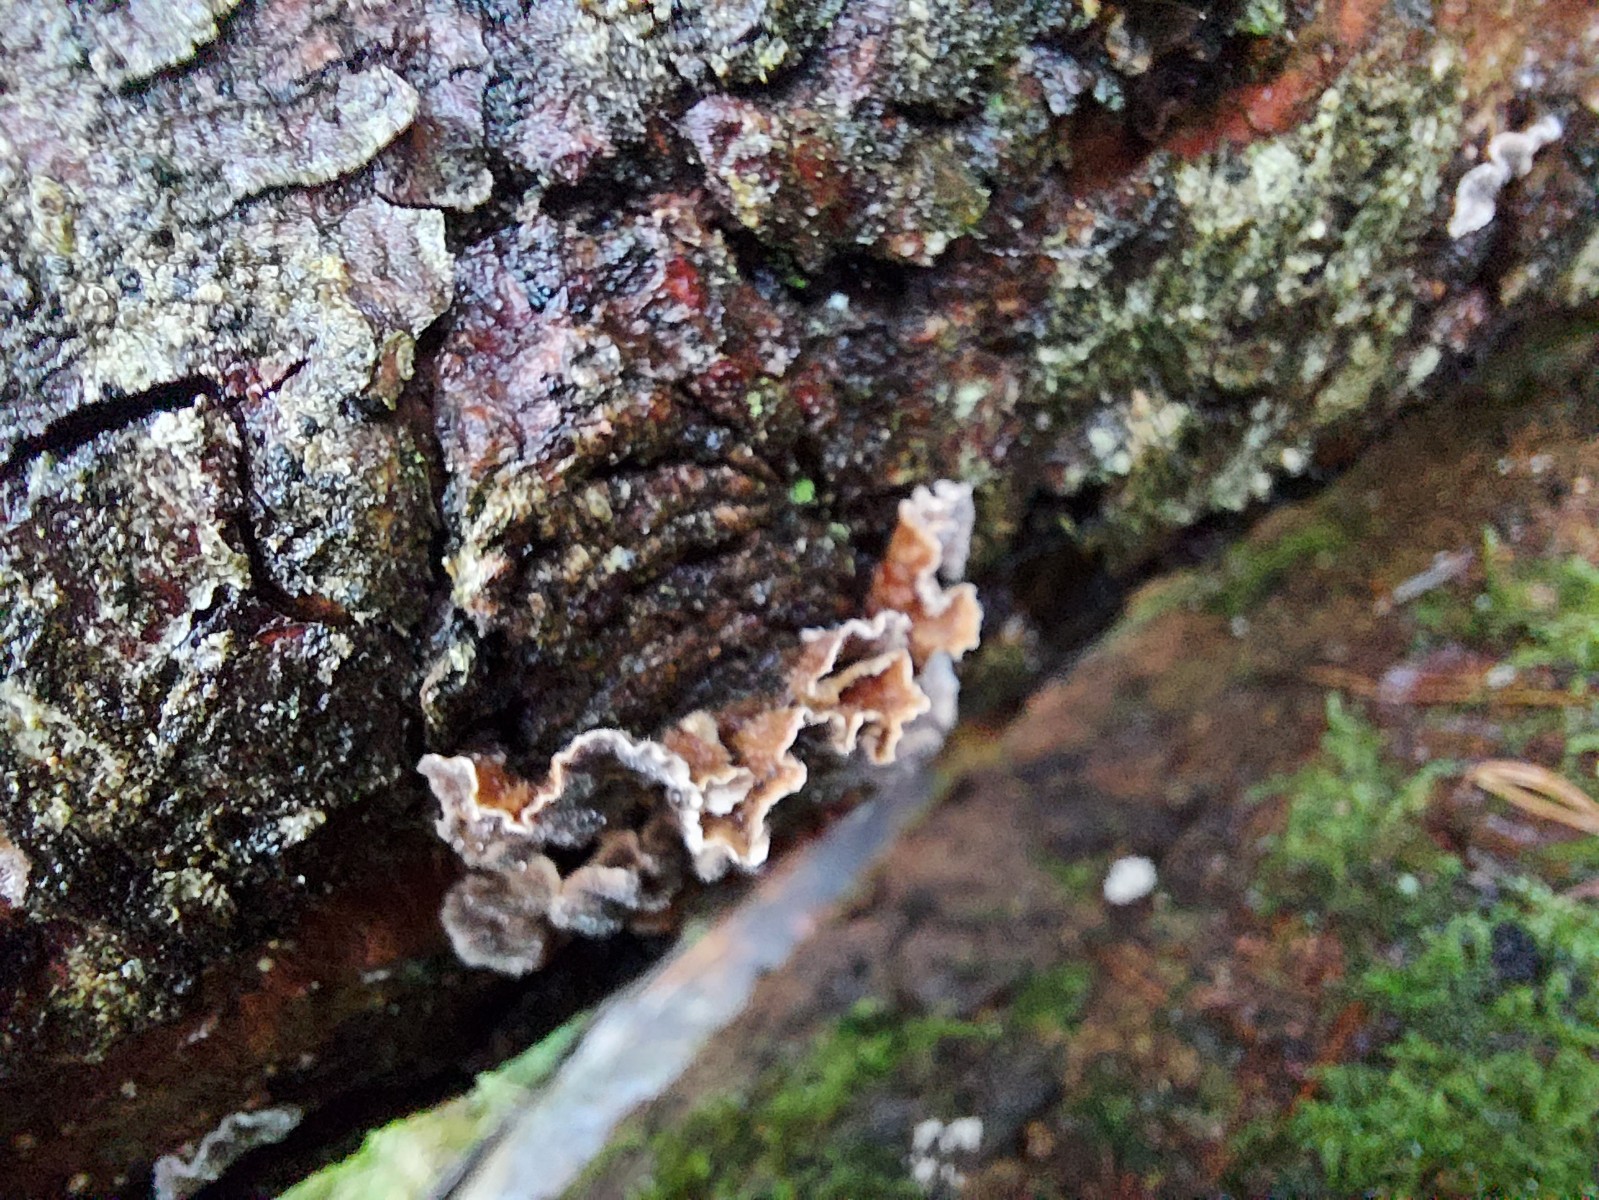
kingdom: Fungi
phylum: Basidiomycota
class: Agaricomycetes
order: Russulales
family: Stereaceae
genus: Stereum
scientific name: Stereum sanguinolentum
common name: blødende lædersvamp
